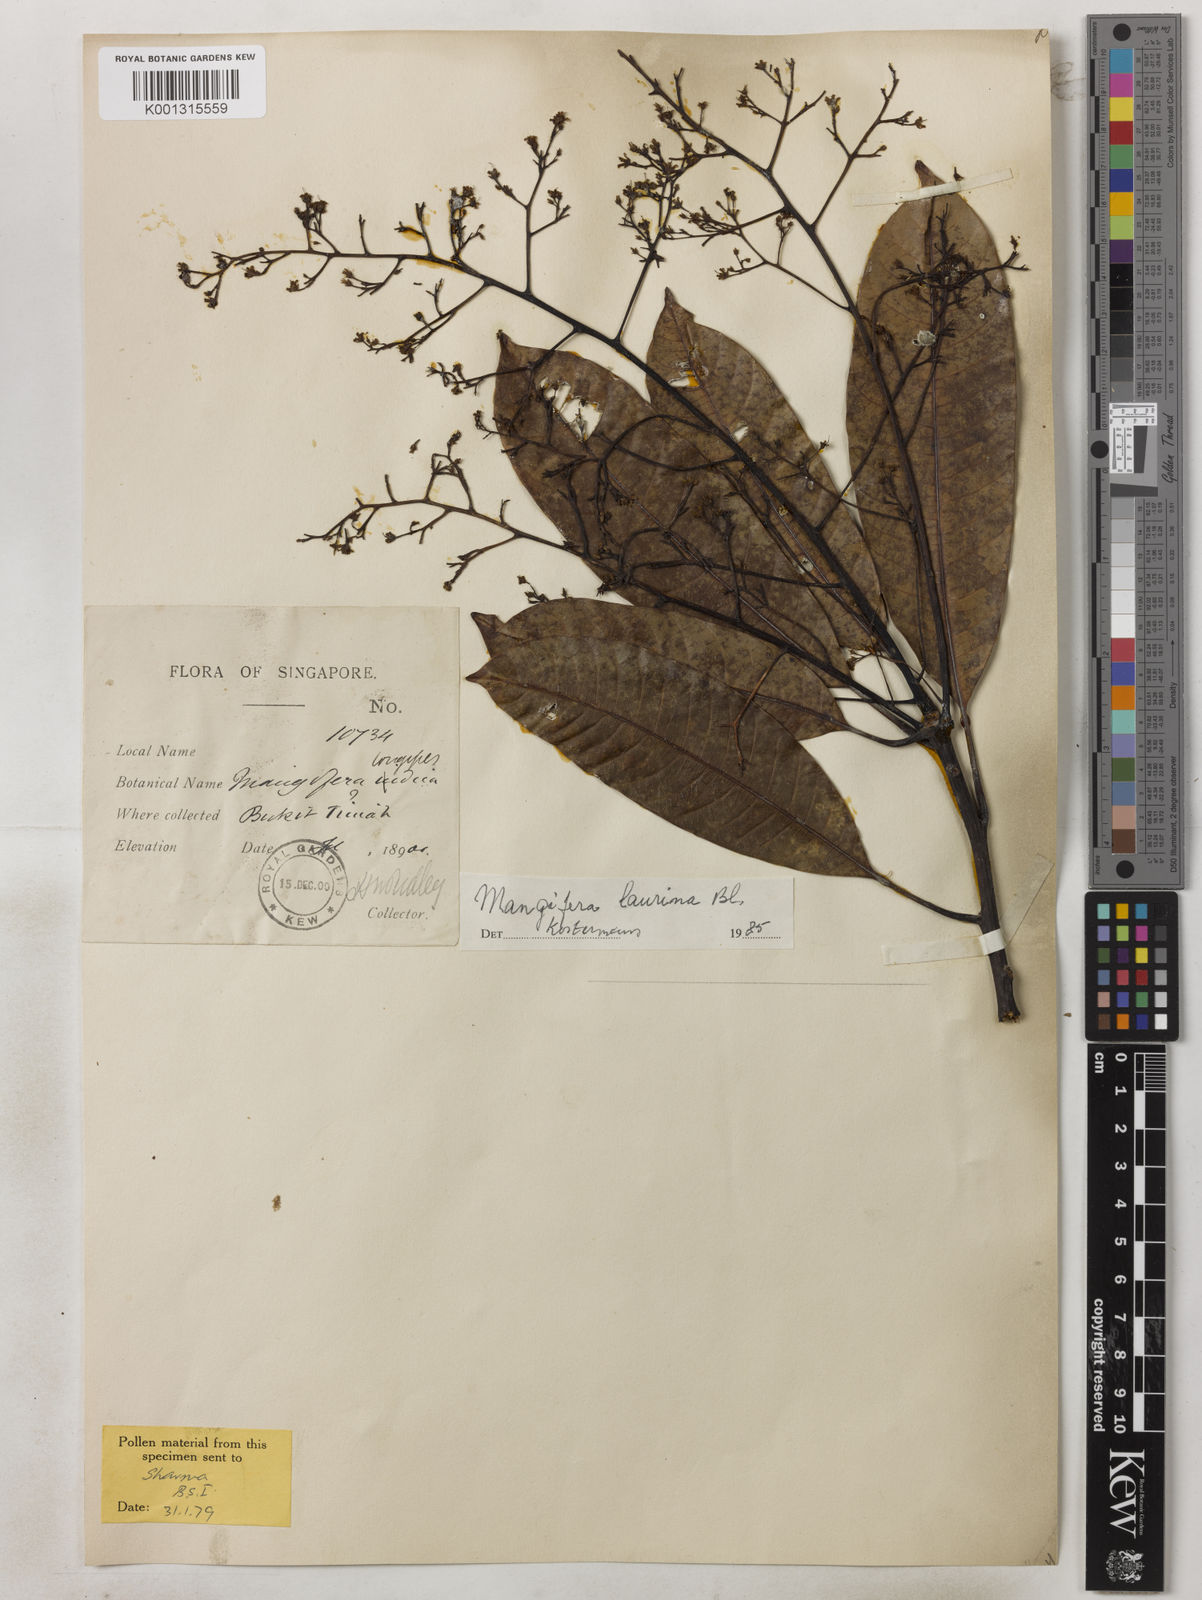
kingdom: Plantae
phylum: Tracheophyta
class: Magnoliopsida
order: Sapindales
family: Anacardiaceae
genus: Mangifera
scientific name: Mangifera laurina
